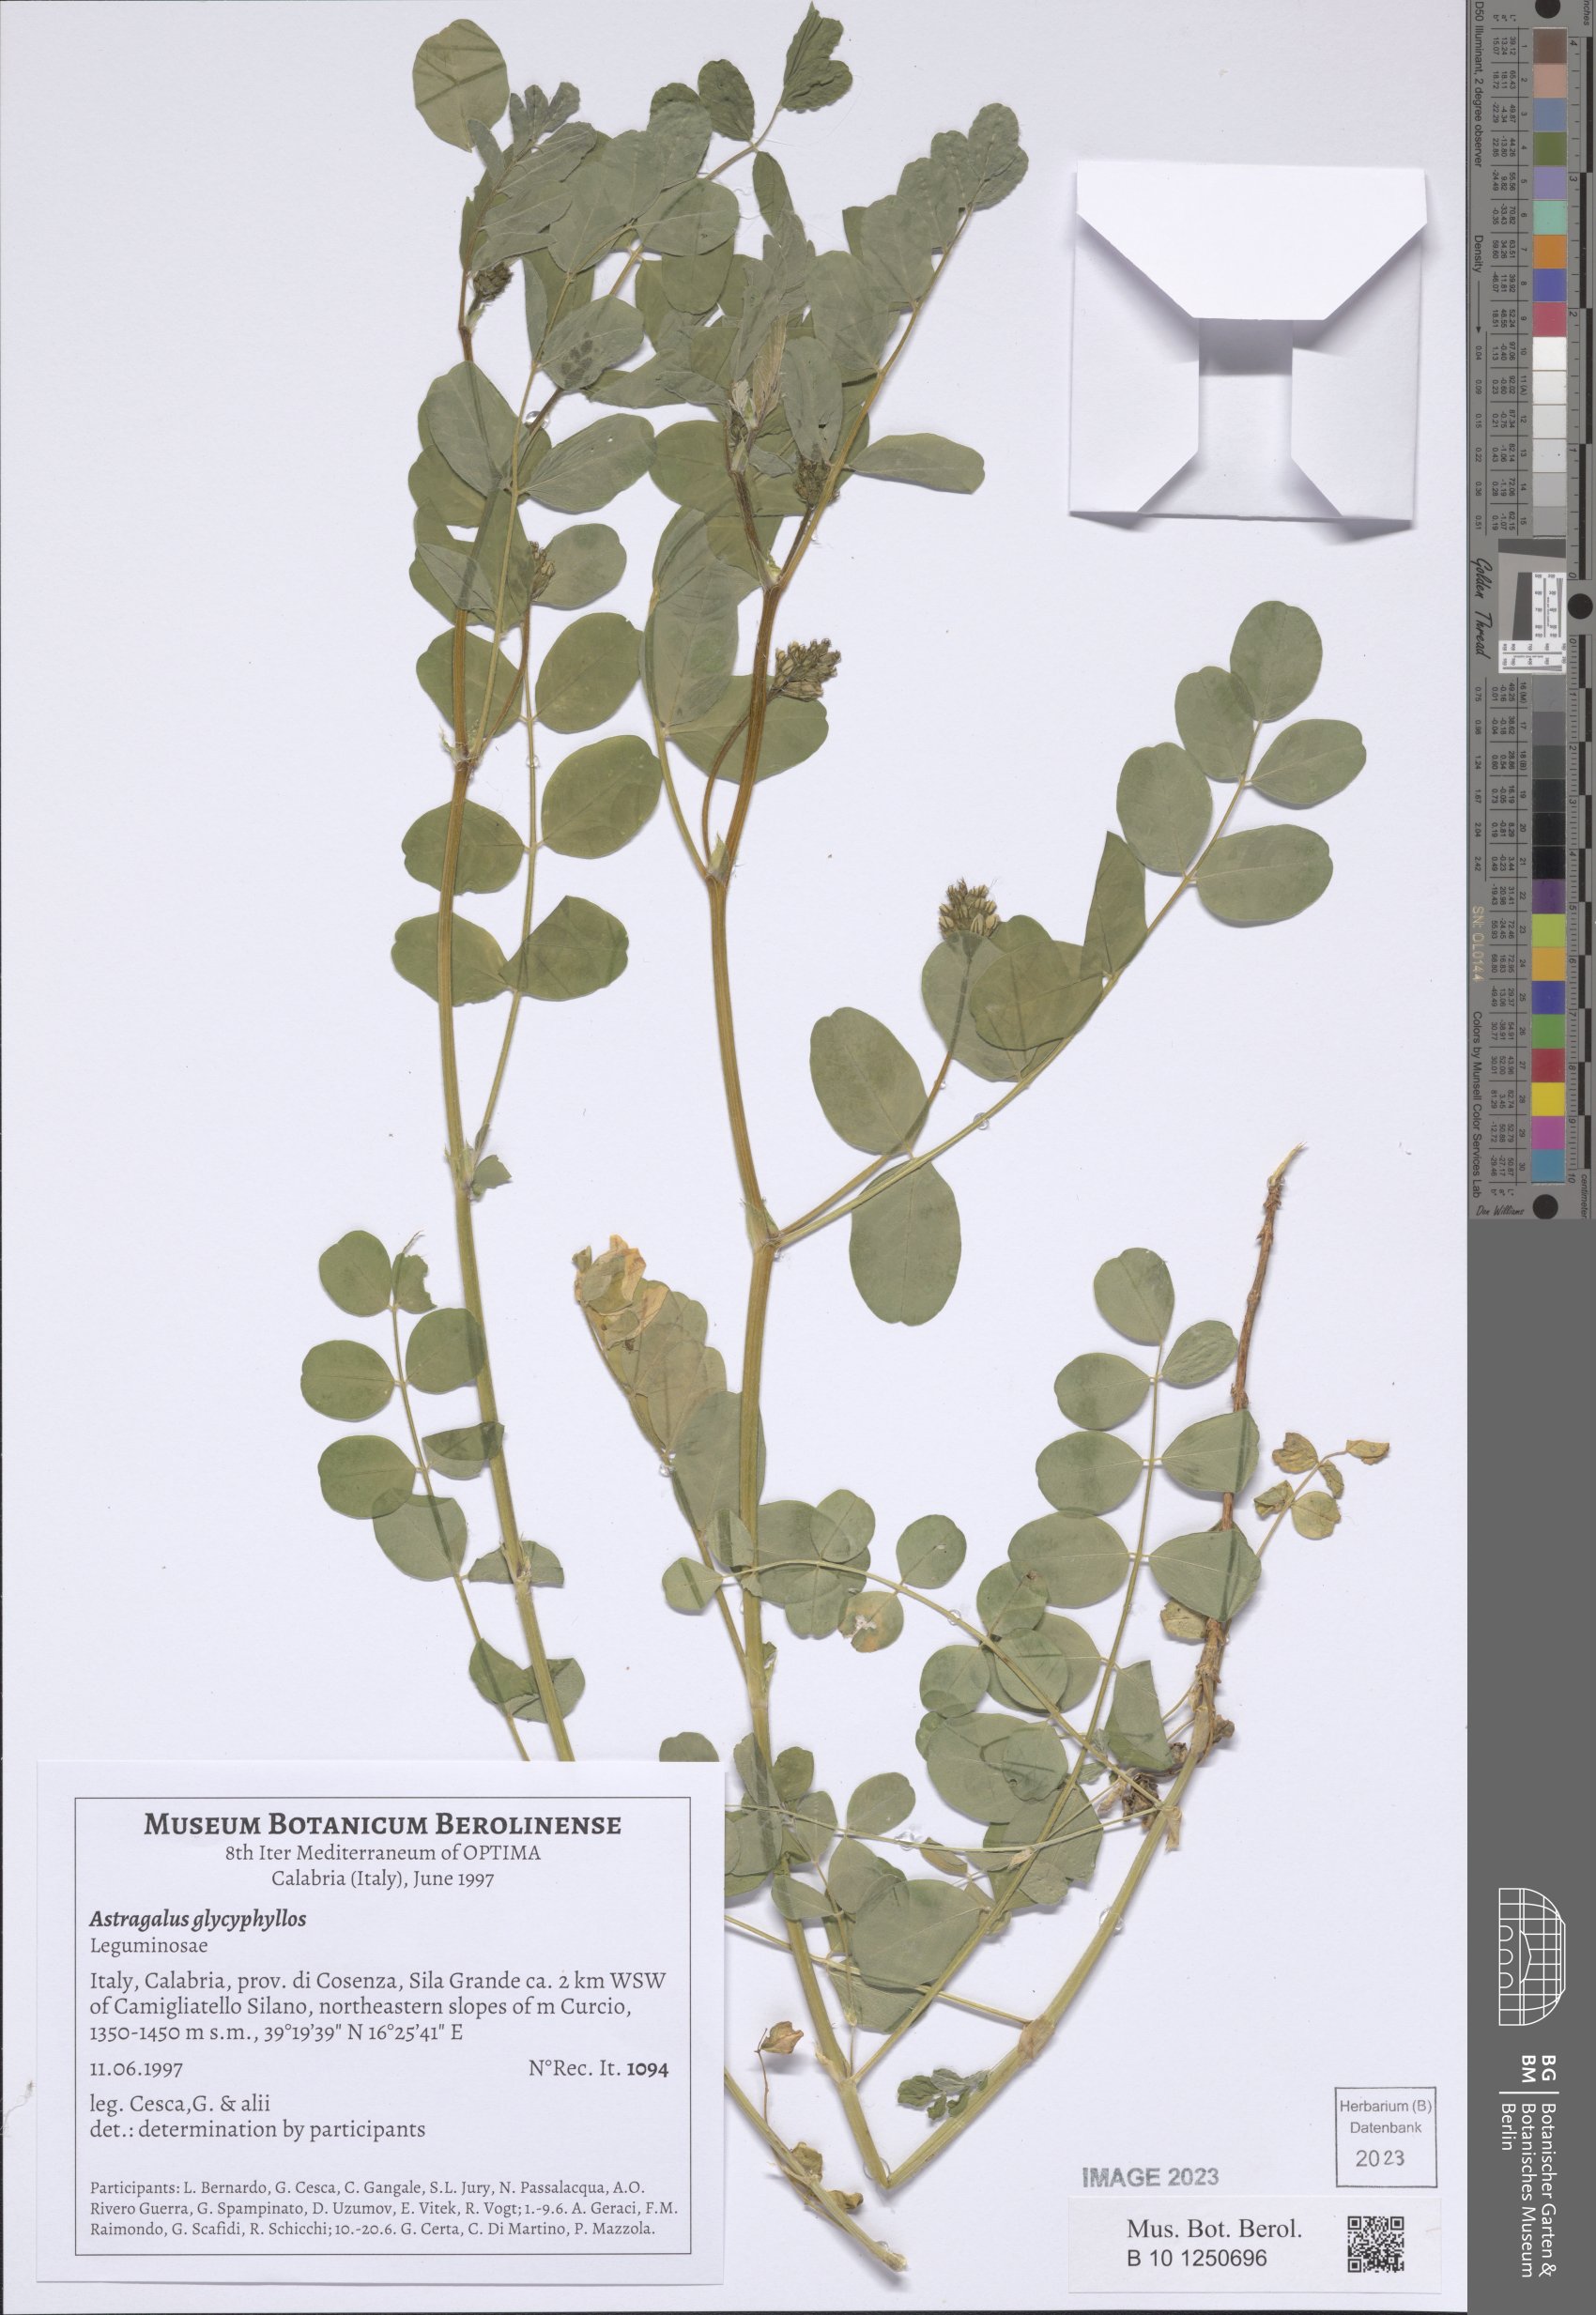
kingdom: Plantae
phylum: Tracheophyta
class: Magnoliopsida
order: Fabales
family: Fabaceae
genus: Astragalus
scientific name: Astragalus glycyphyllos
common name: Wild liquorice
